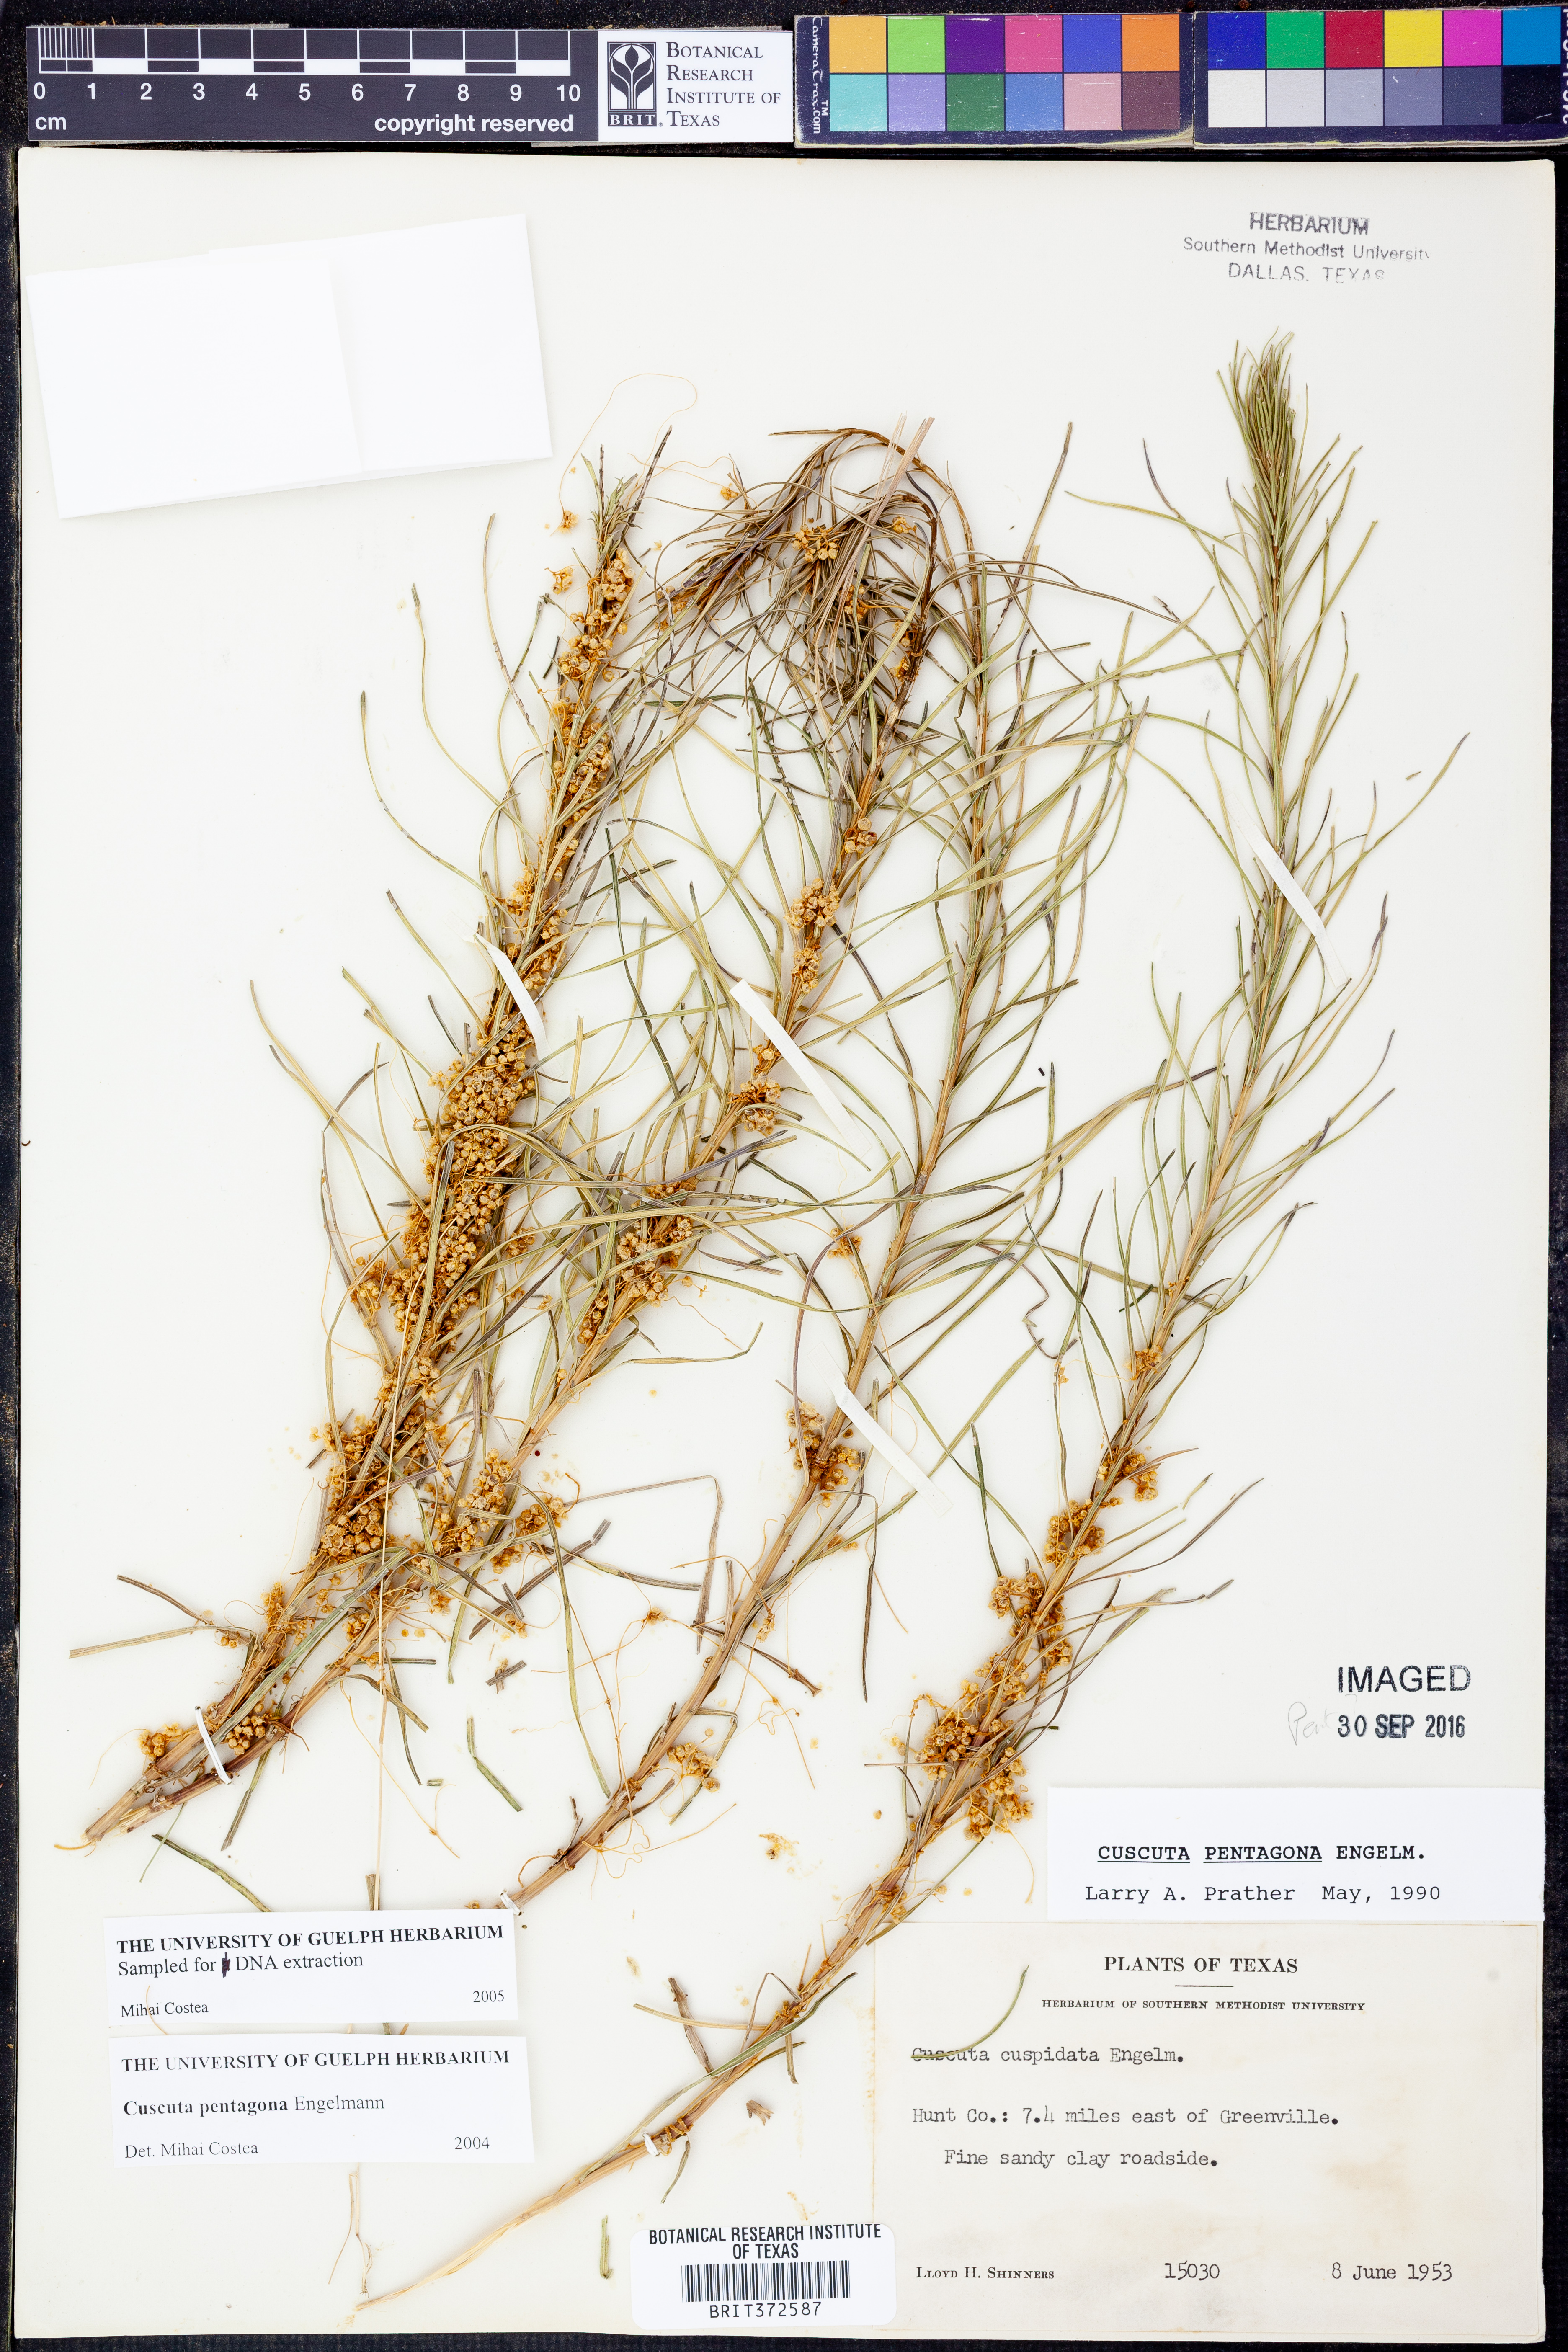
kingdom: Plantae
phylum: Tracheophyta
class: Magnoliopsida
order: Solanales
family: Convolvulaceae
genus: Cuscuta
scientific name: Cuscuta pentagona
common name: Fiveangled dodder
